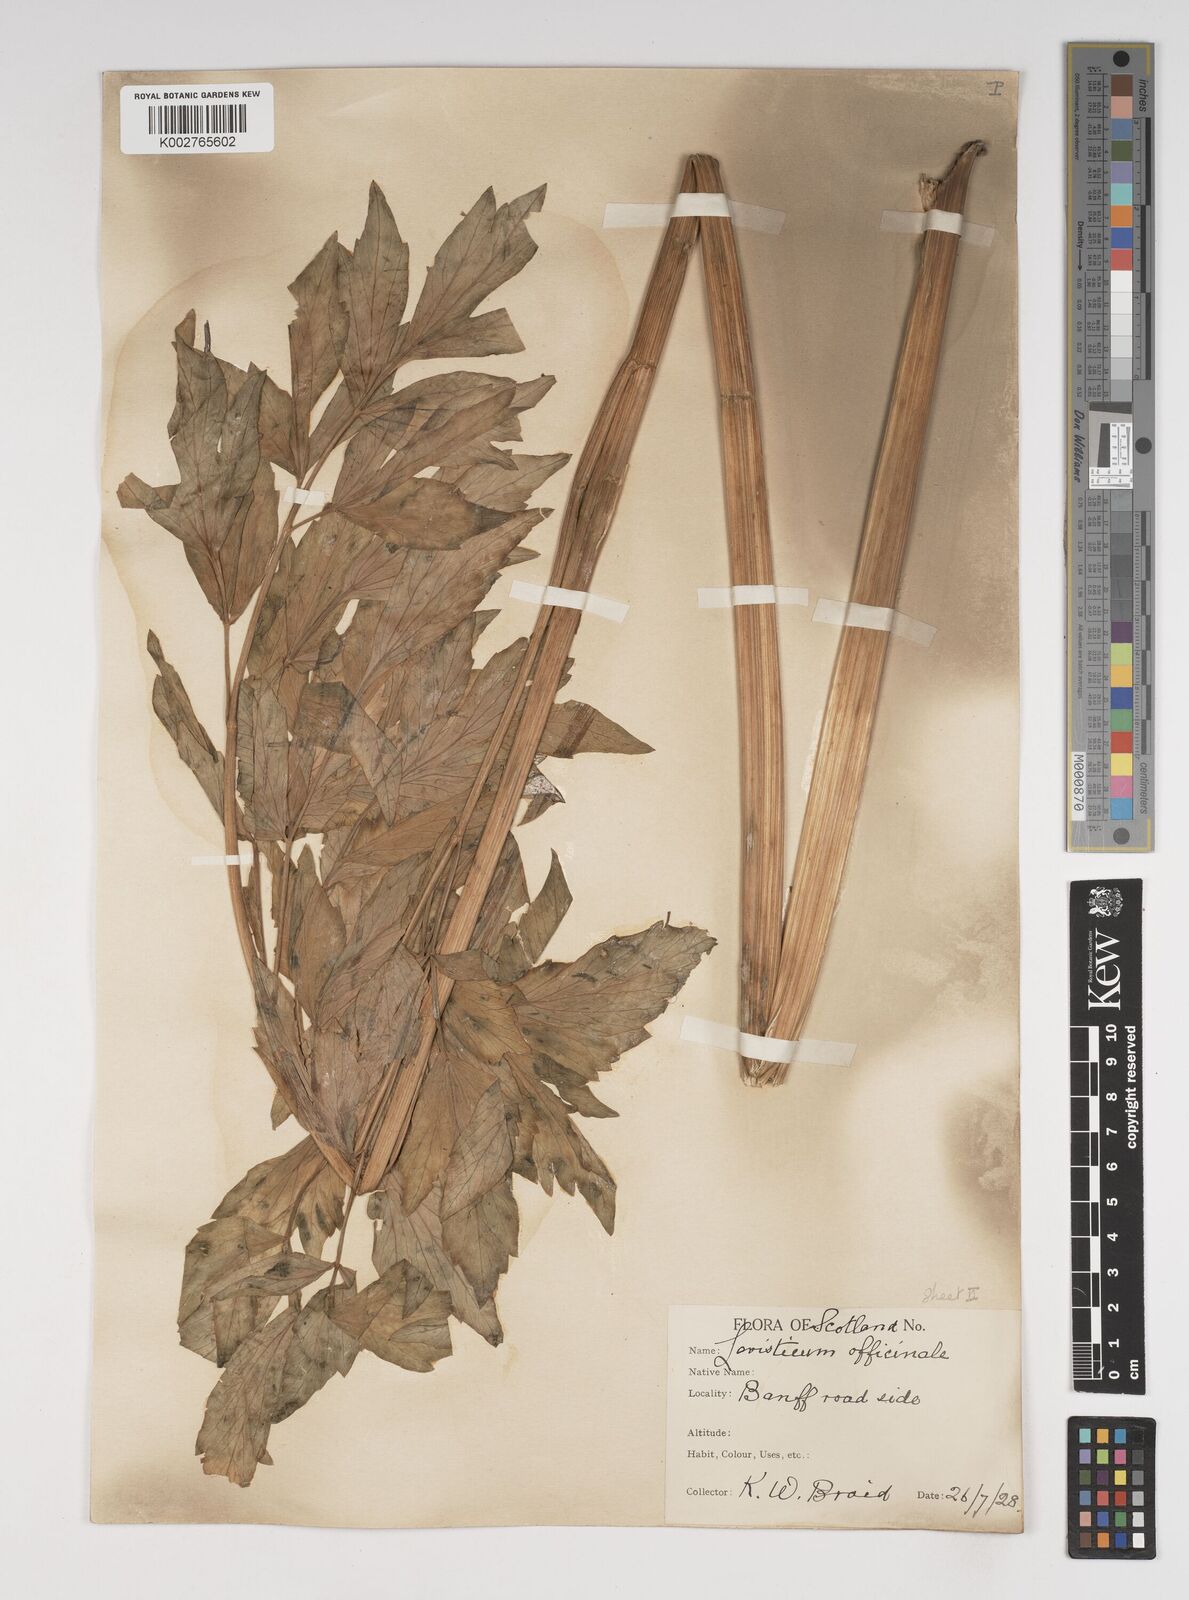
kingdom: Plantae
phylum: Tracheophyta
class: Magnoliopsida
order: Apiales
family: Apiaceae
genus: Levisticum
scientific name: Levisticum officinale
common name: Lovage
